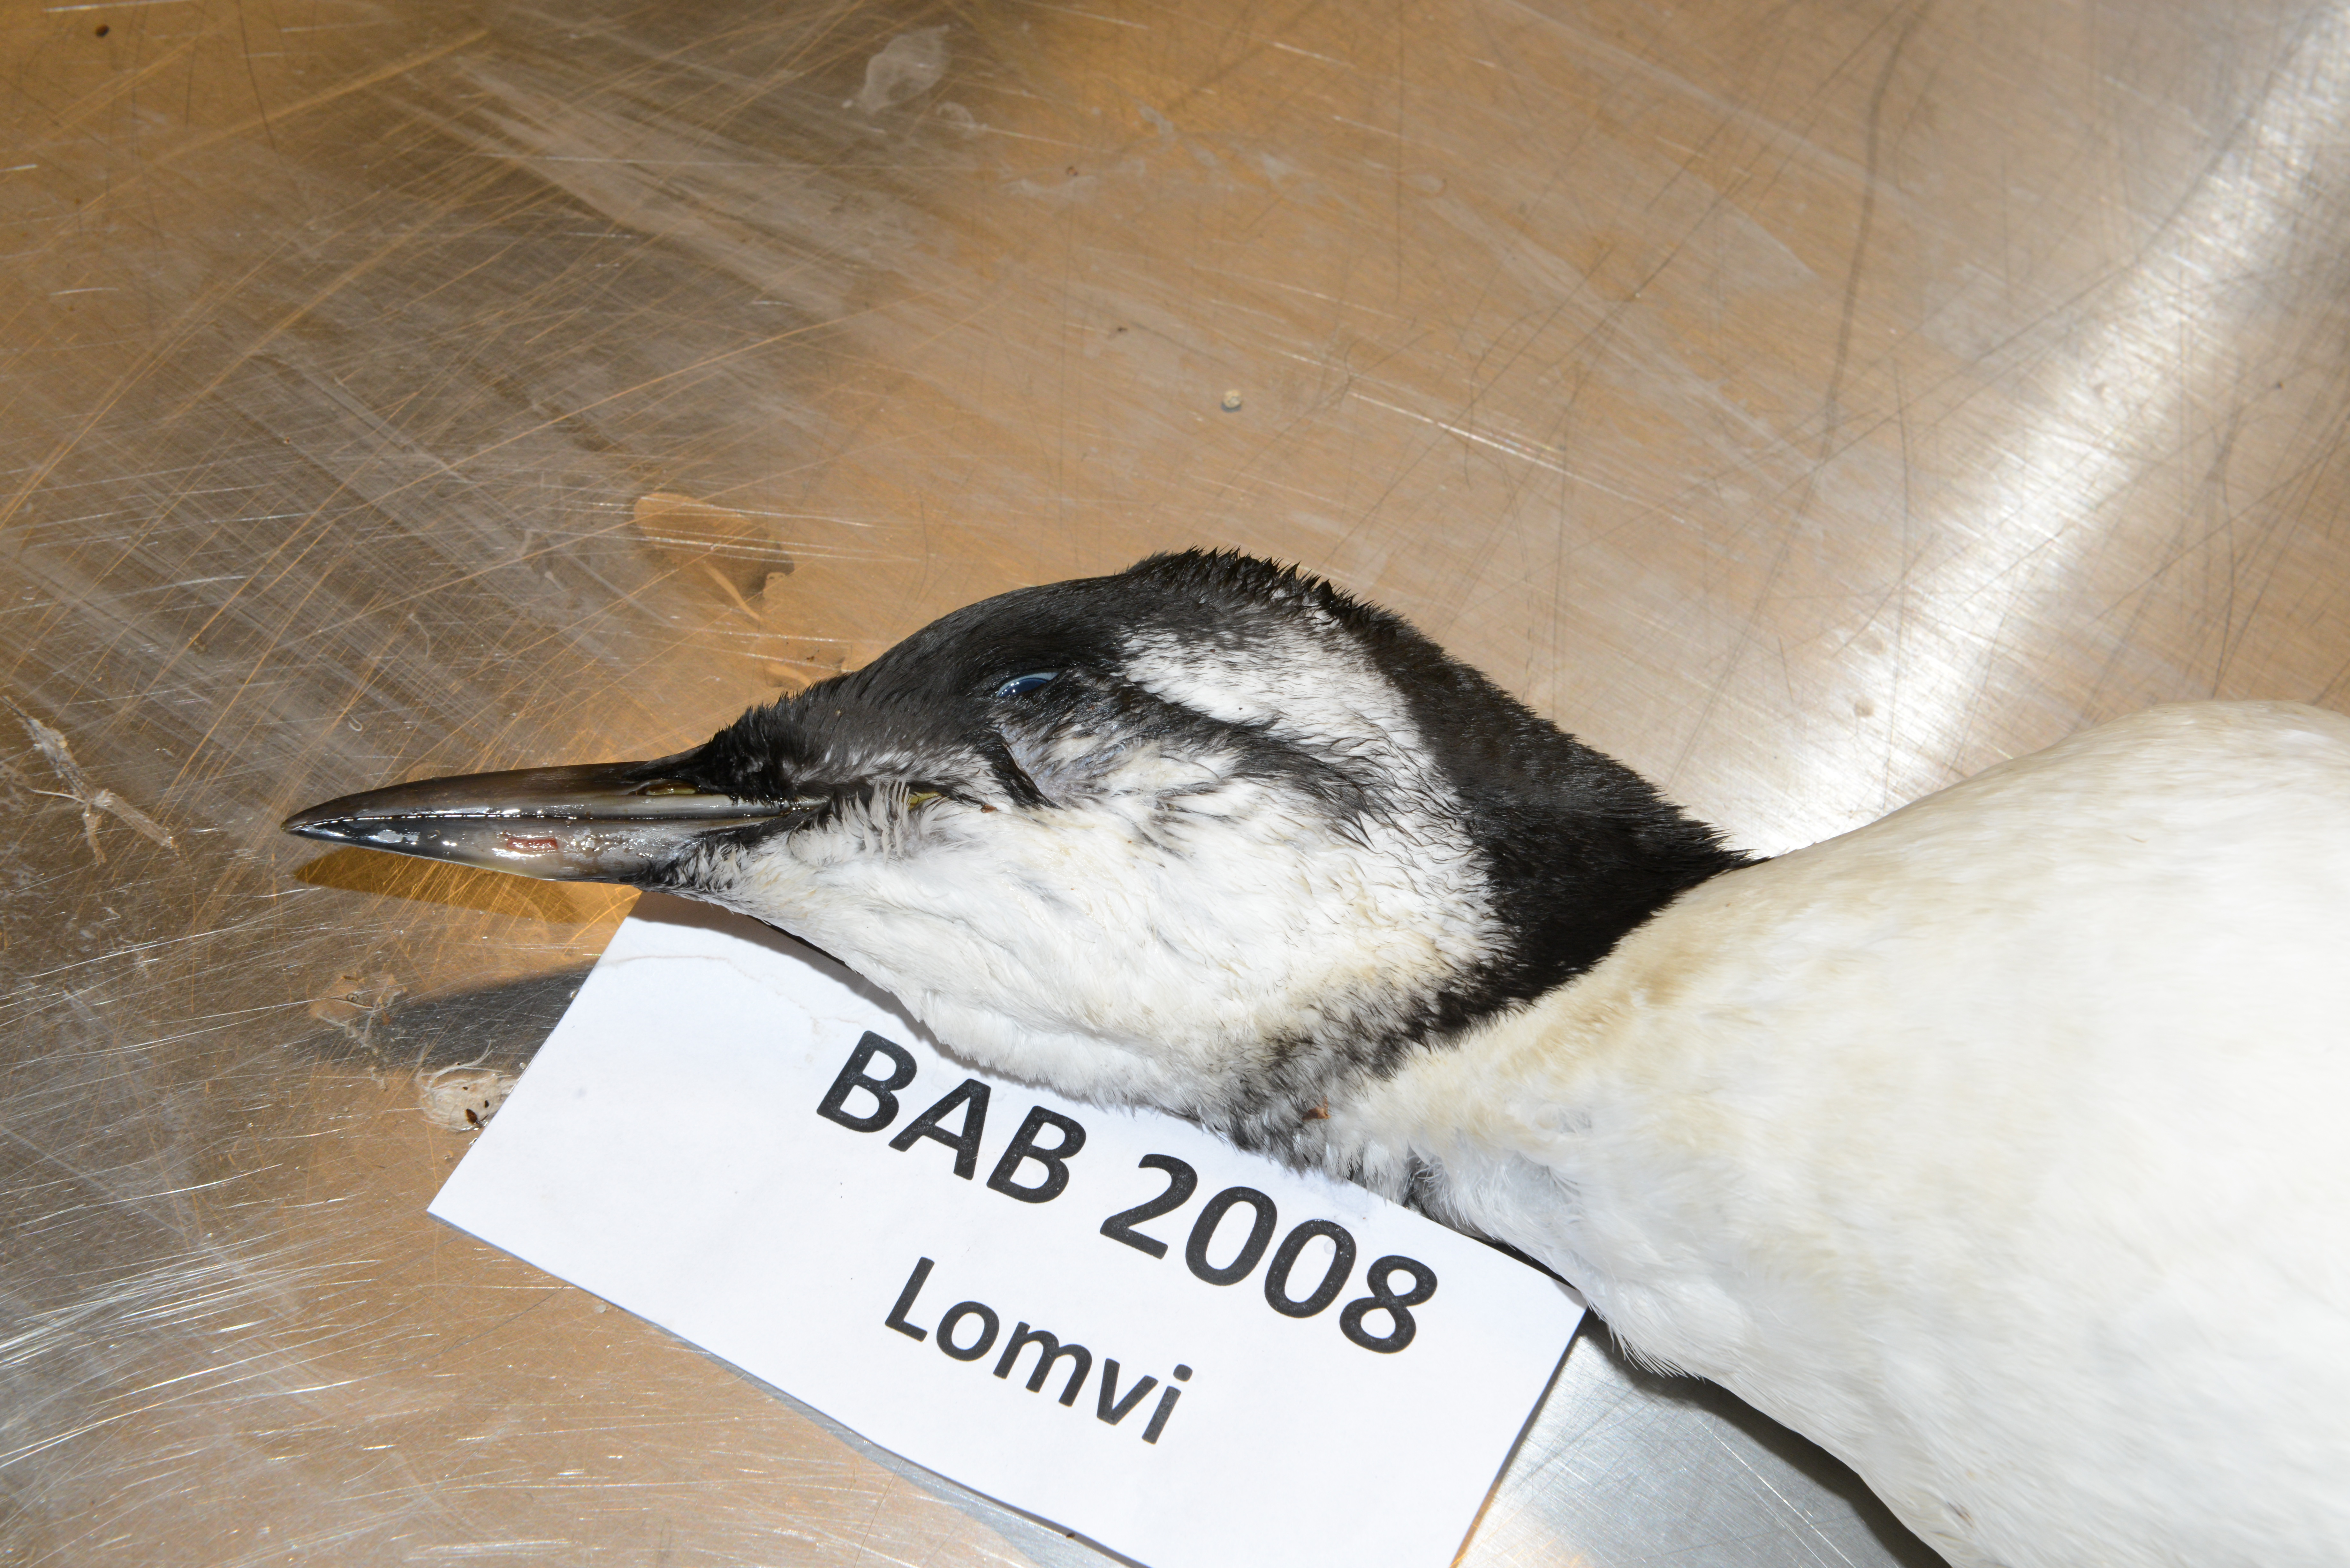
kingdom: Animalia
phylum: Chordata
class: Aves
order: Charadriiformes
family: Alcidae
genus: Uria
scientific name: Uria aalge
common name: Common murre
